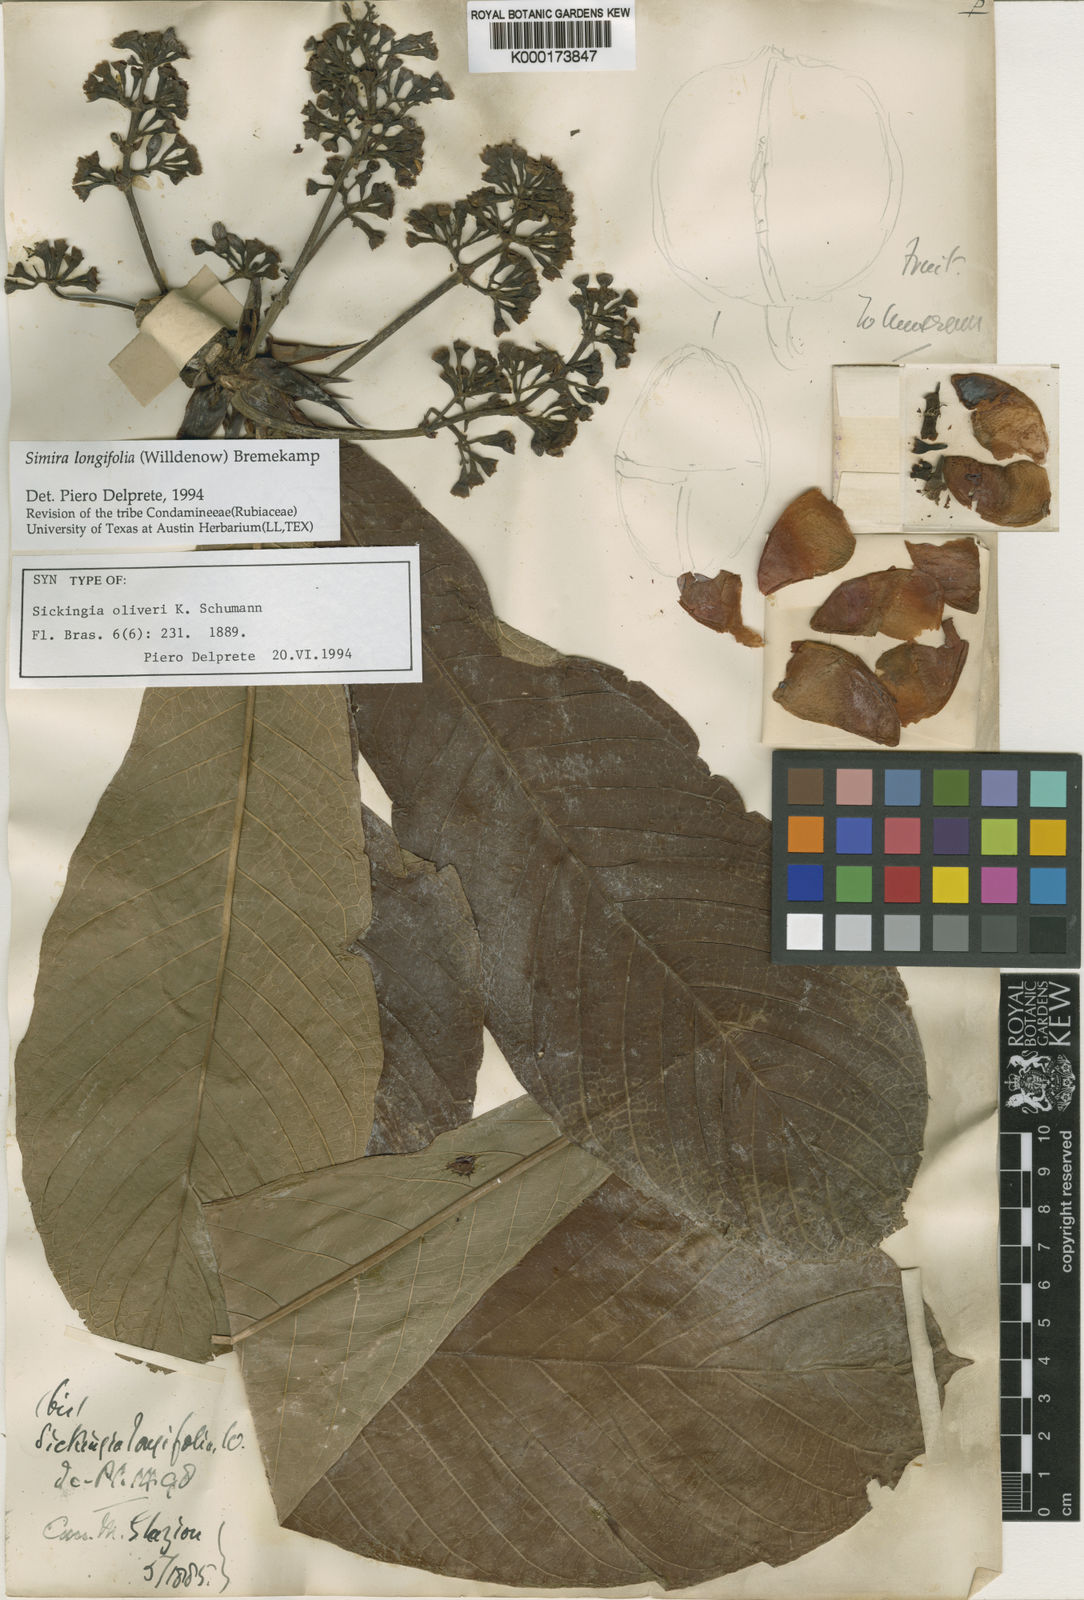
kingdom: Plantae
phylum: Tracheophyta
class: Magnoliopsida
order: Gentianales
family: Rubiaceae
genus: Simira
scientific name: Simira longifolia
